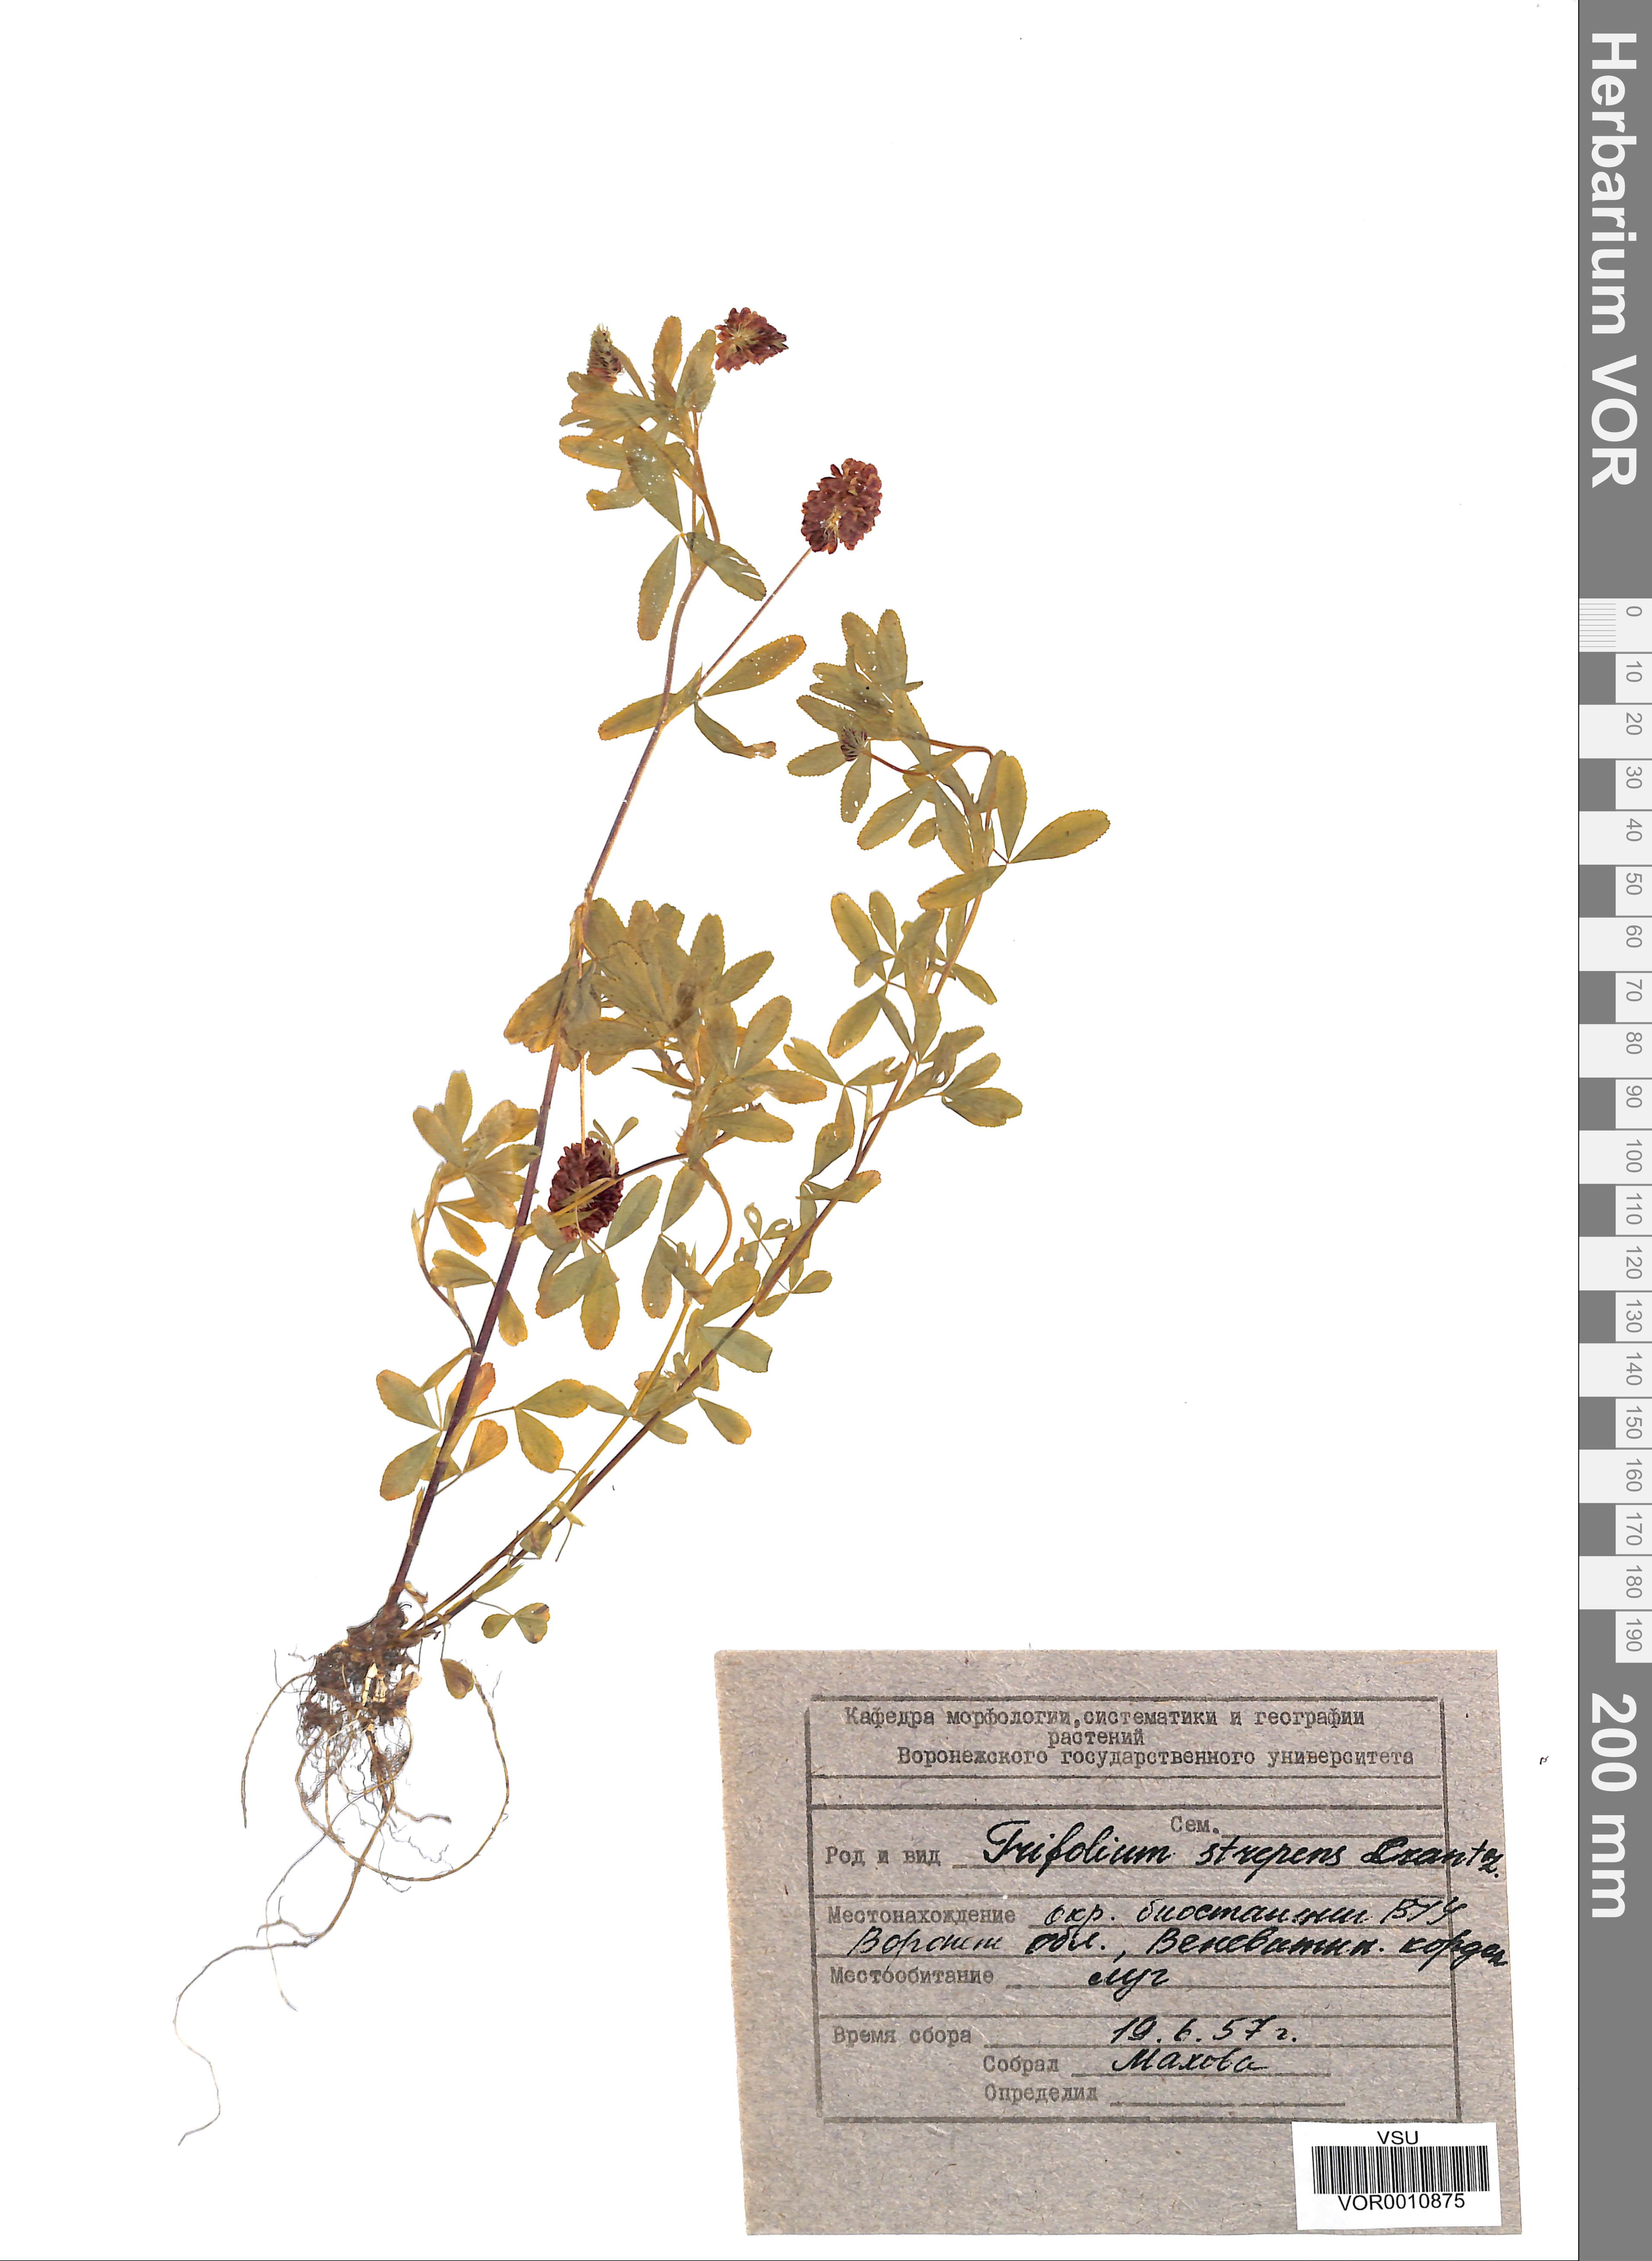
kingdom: Plantae
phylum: Tracheophyta
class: Magnoliopsida
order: Fabales
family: Fabaceae
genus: Trifolium
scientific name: Trifolium aureum
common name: Golden clover
